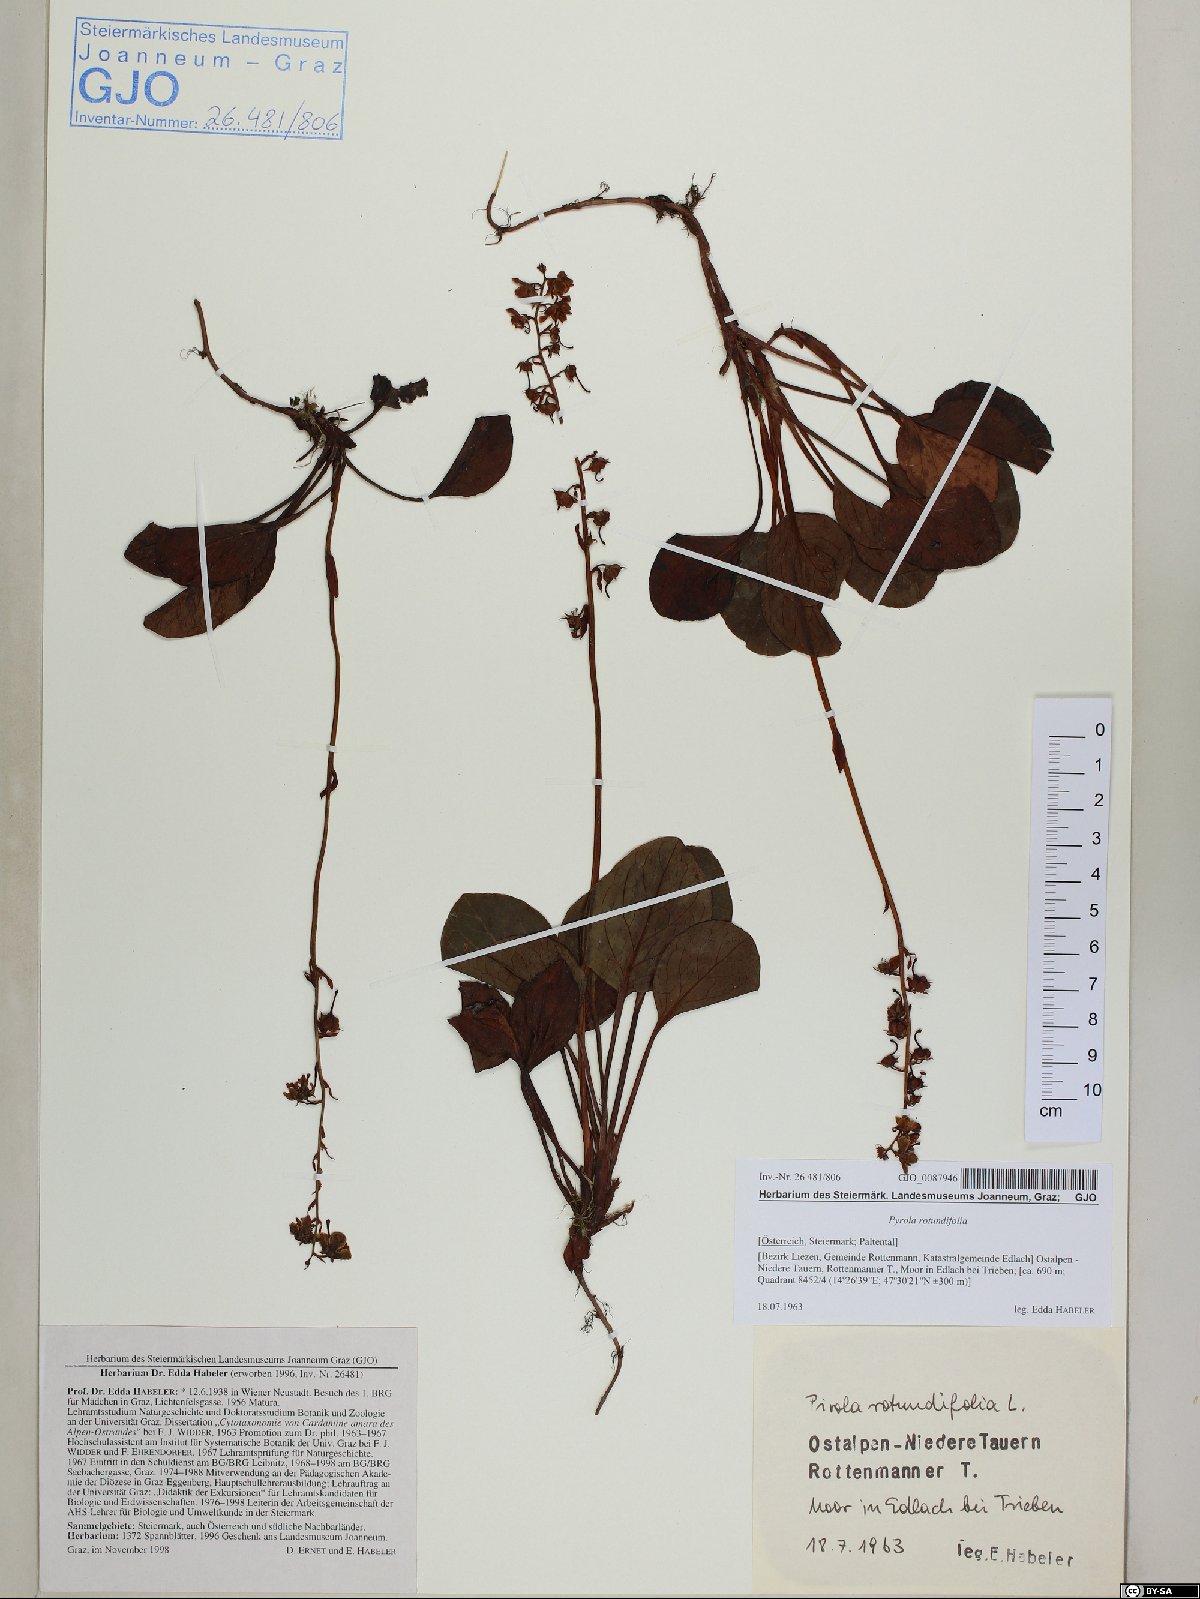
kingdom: Plantae
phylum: Tracheophyta
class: Magnoliopsida
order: Ericales
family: Ericaceae
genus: Pyrola
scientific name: Pyrola rotundifolia
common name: Round-leaved wintergreen
